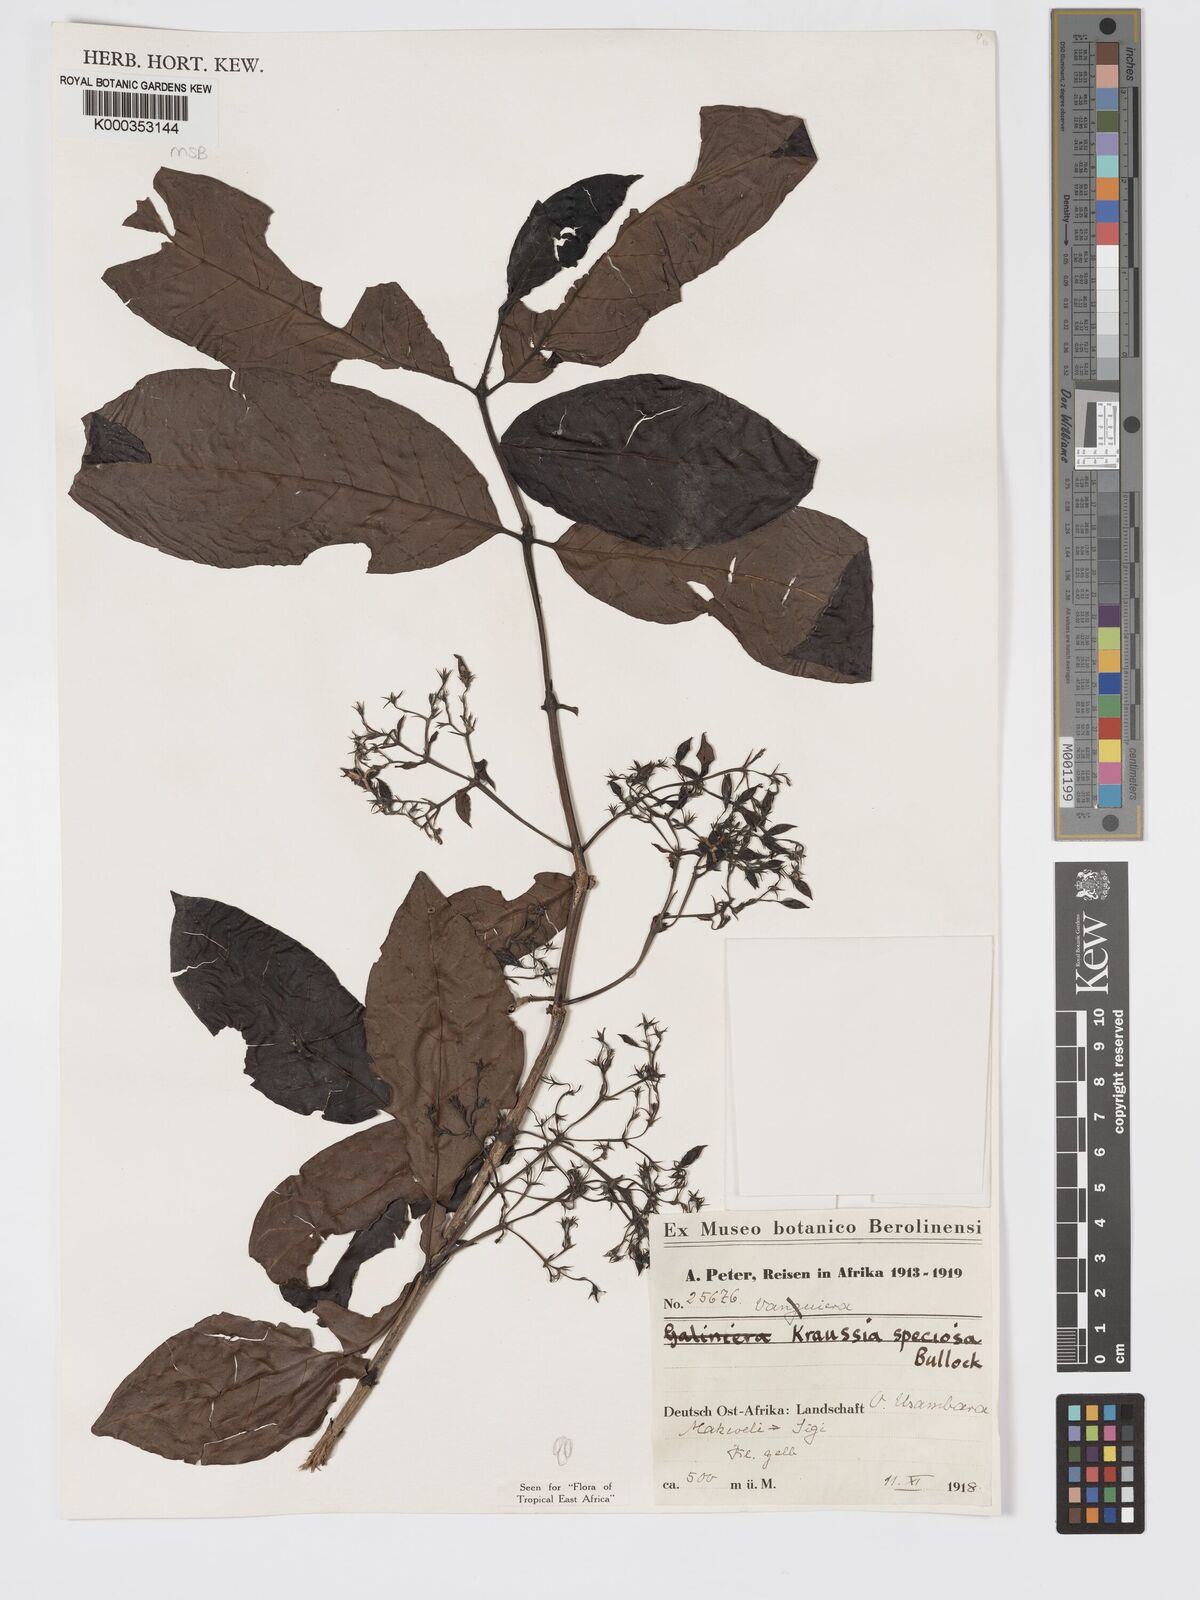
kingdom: Plantae
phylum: Tracheophyta
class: Magnoliopsida
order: Gentianales
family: Rubiaceae
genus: Kraussia
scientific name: Kraussia speciosa
